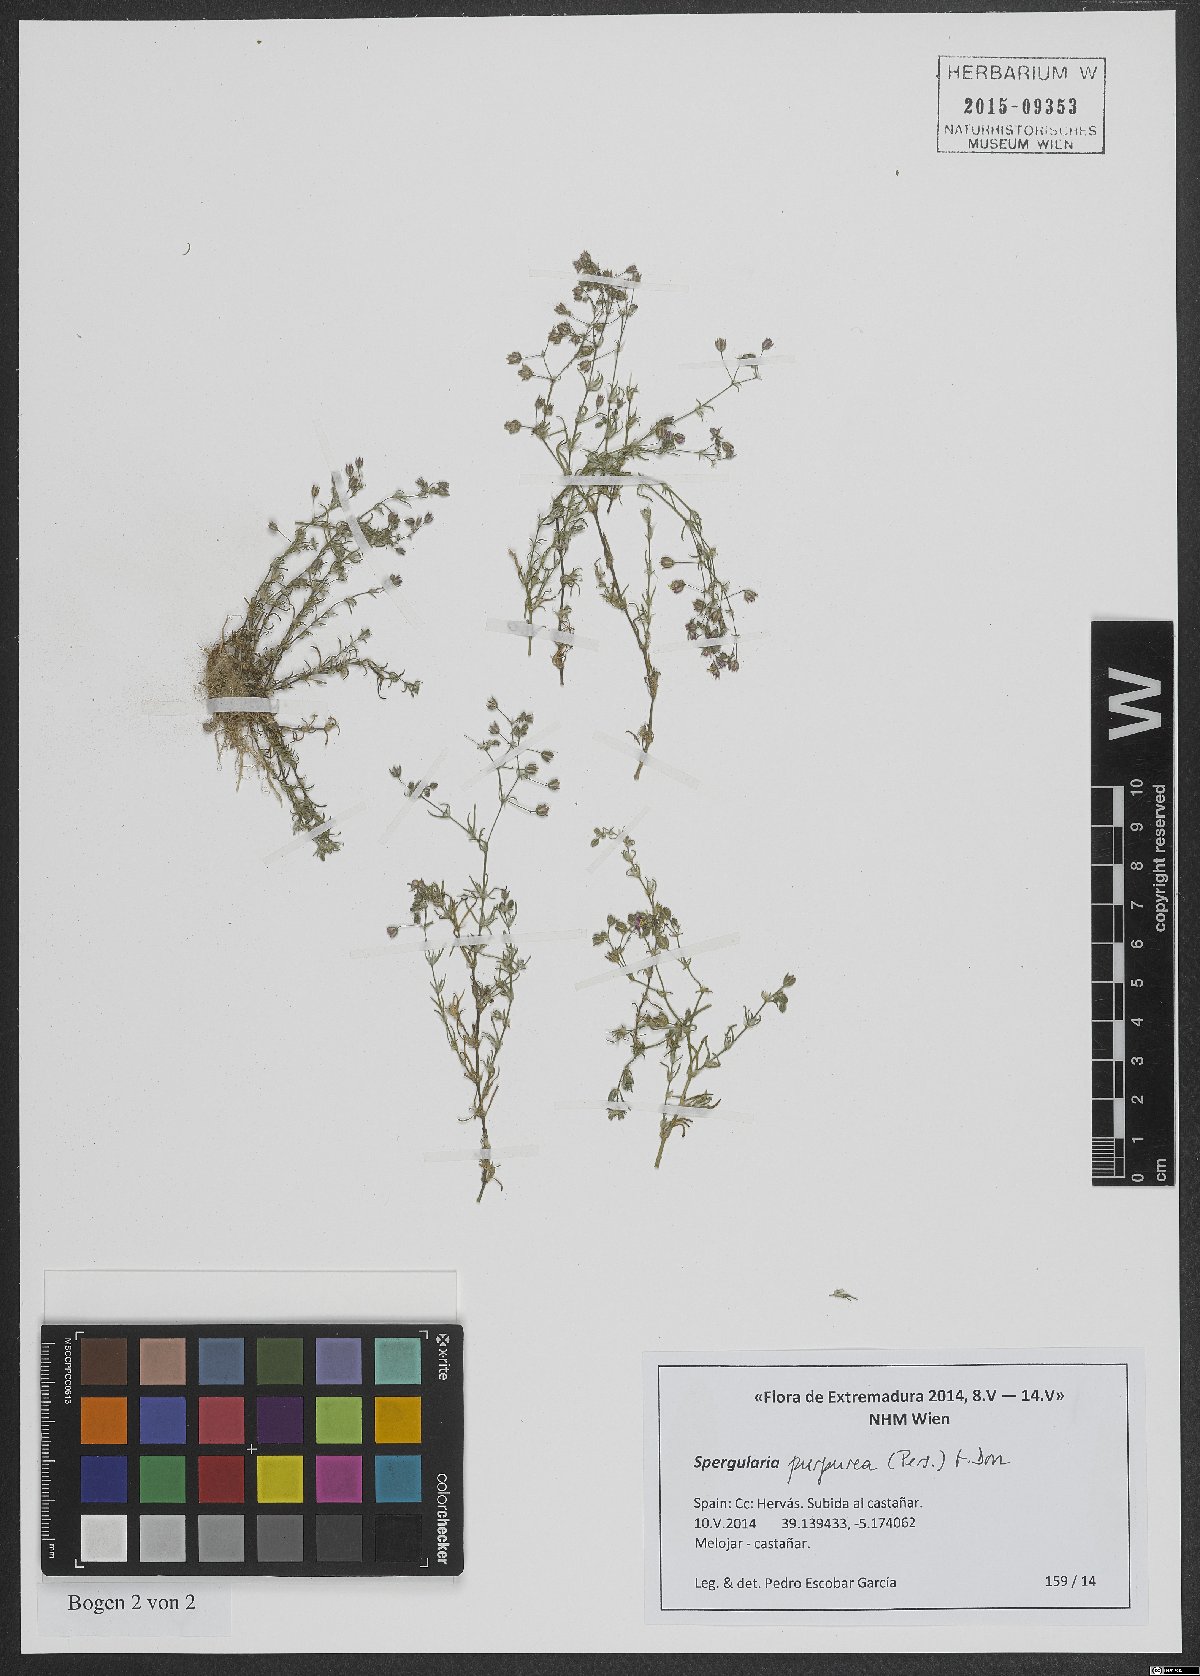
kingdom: Plantae
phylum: Tracheophyta
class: Magnoliopsida
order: Caryophyllales
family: Caryophyllaceae
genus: Spergularia
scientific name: Spergularia purpurea
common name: Purple sandspurry
